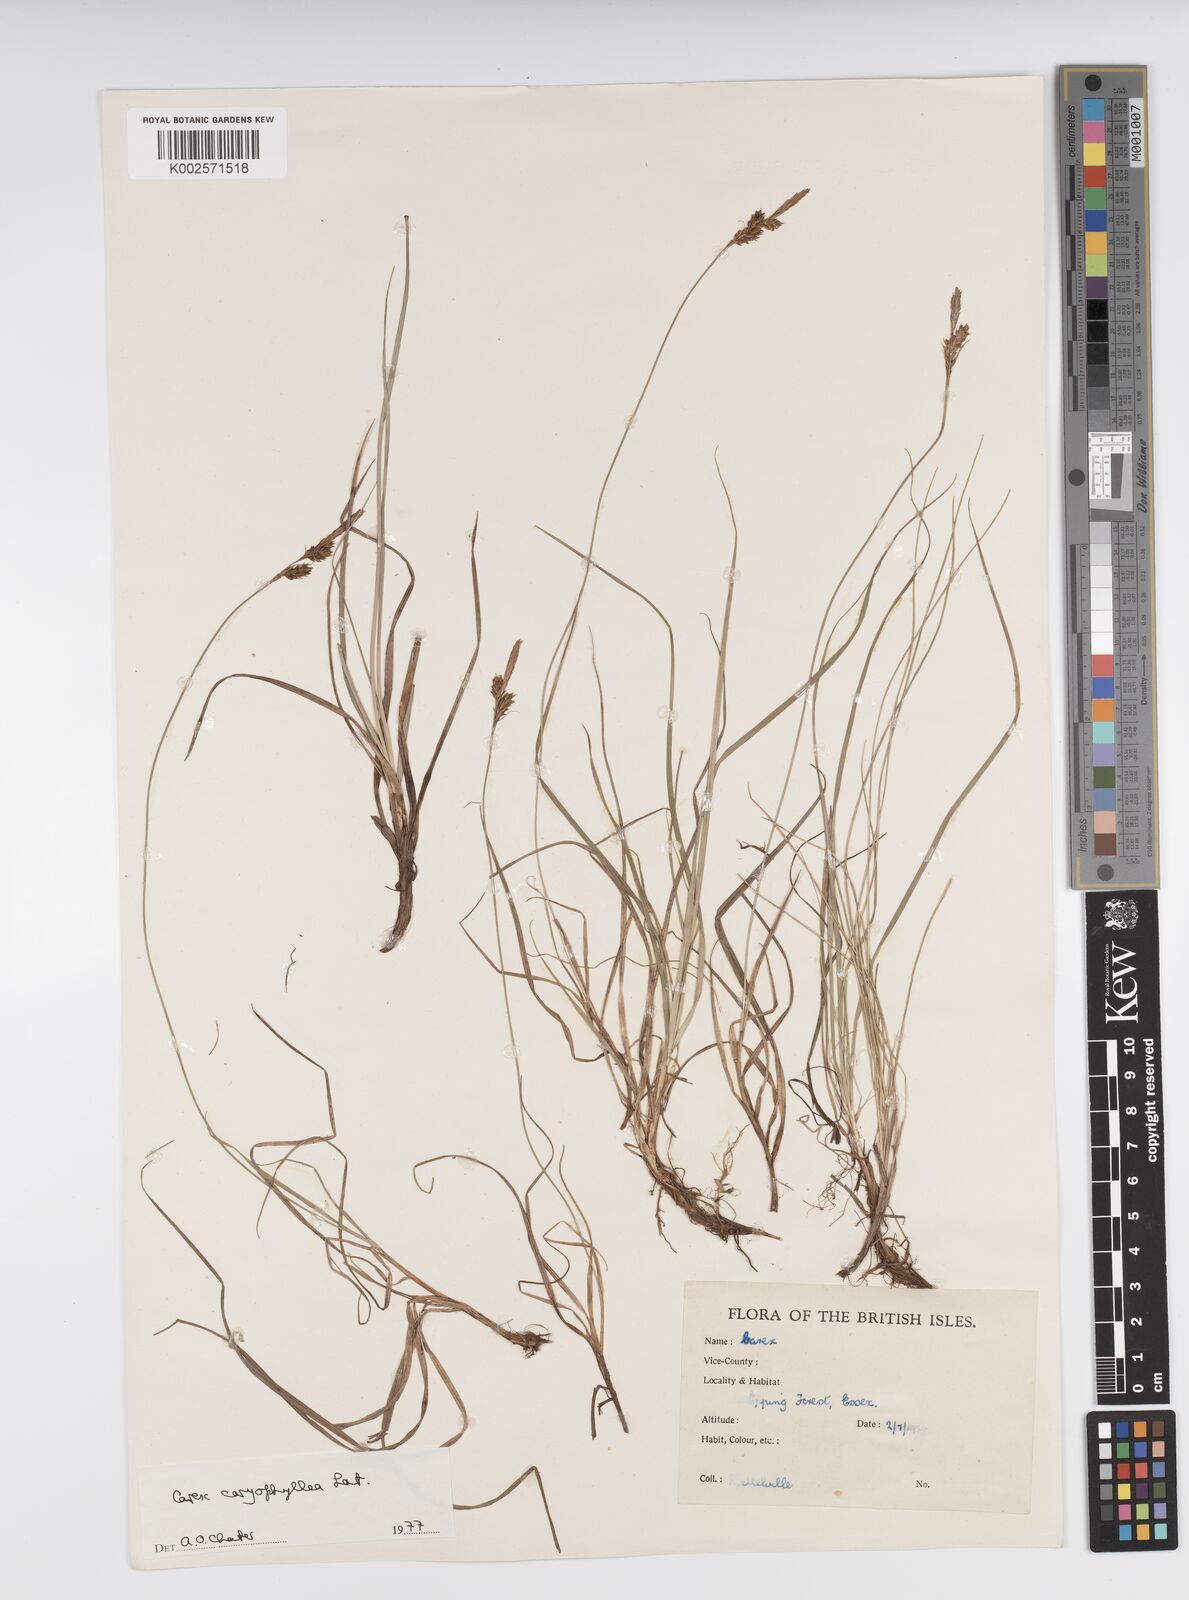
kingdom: Plantae
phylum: Tracheophyta
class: Liliopsida
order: Poales
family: Cyperaceae
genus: Carex
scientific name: Carex caryophyllea
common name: Spring sedge
